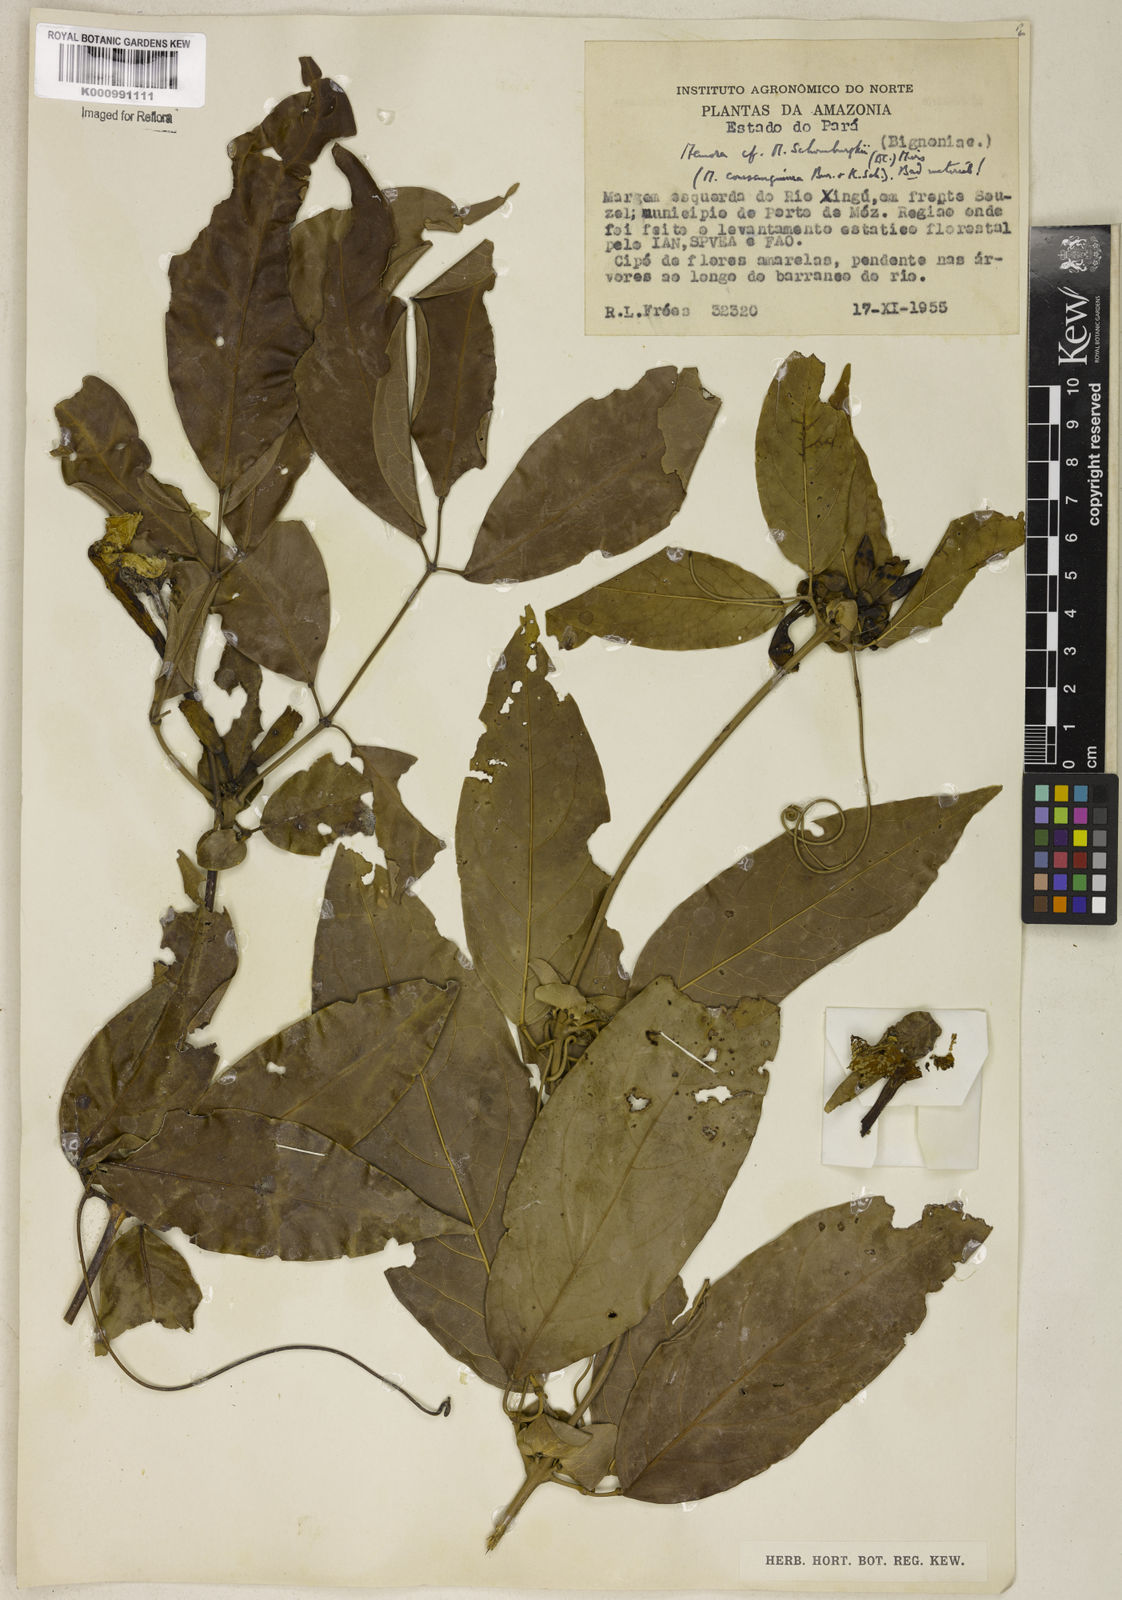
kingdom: Plantae
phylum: Tracheophyta
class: Magnoliopsida
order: Lamiales
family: Bignoniaceae
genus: Adenocalymma
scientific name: Adenocalymma schomburgkii
